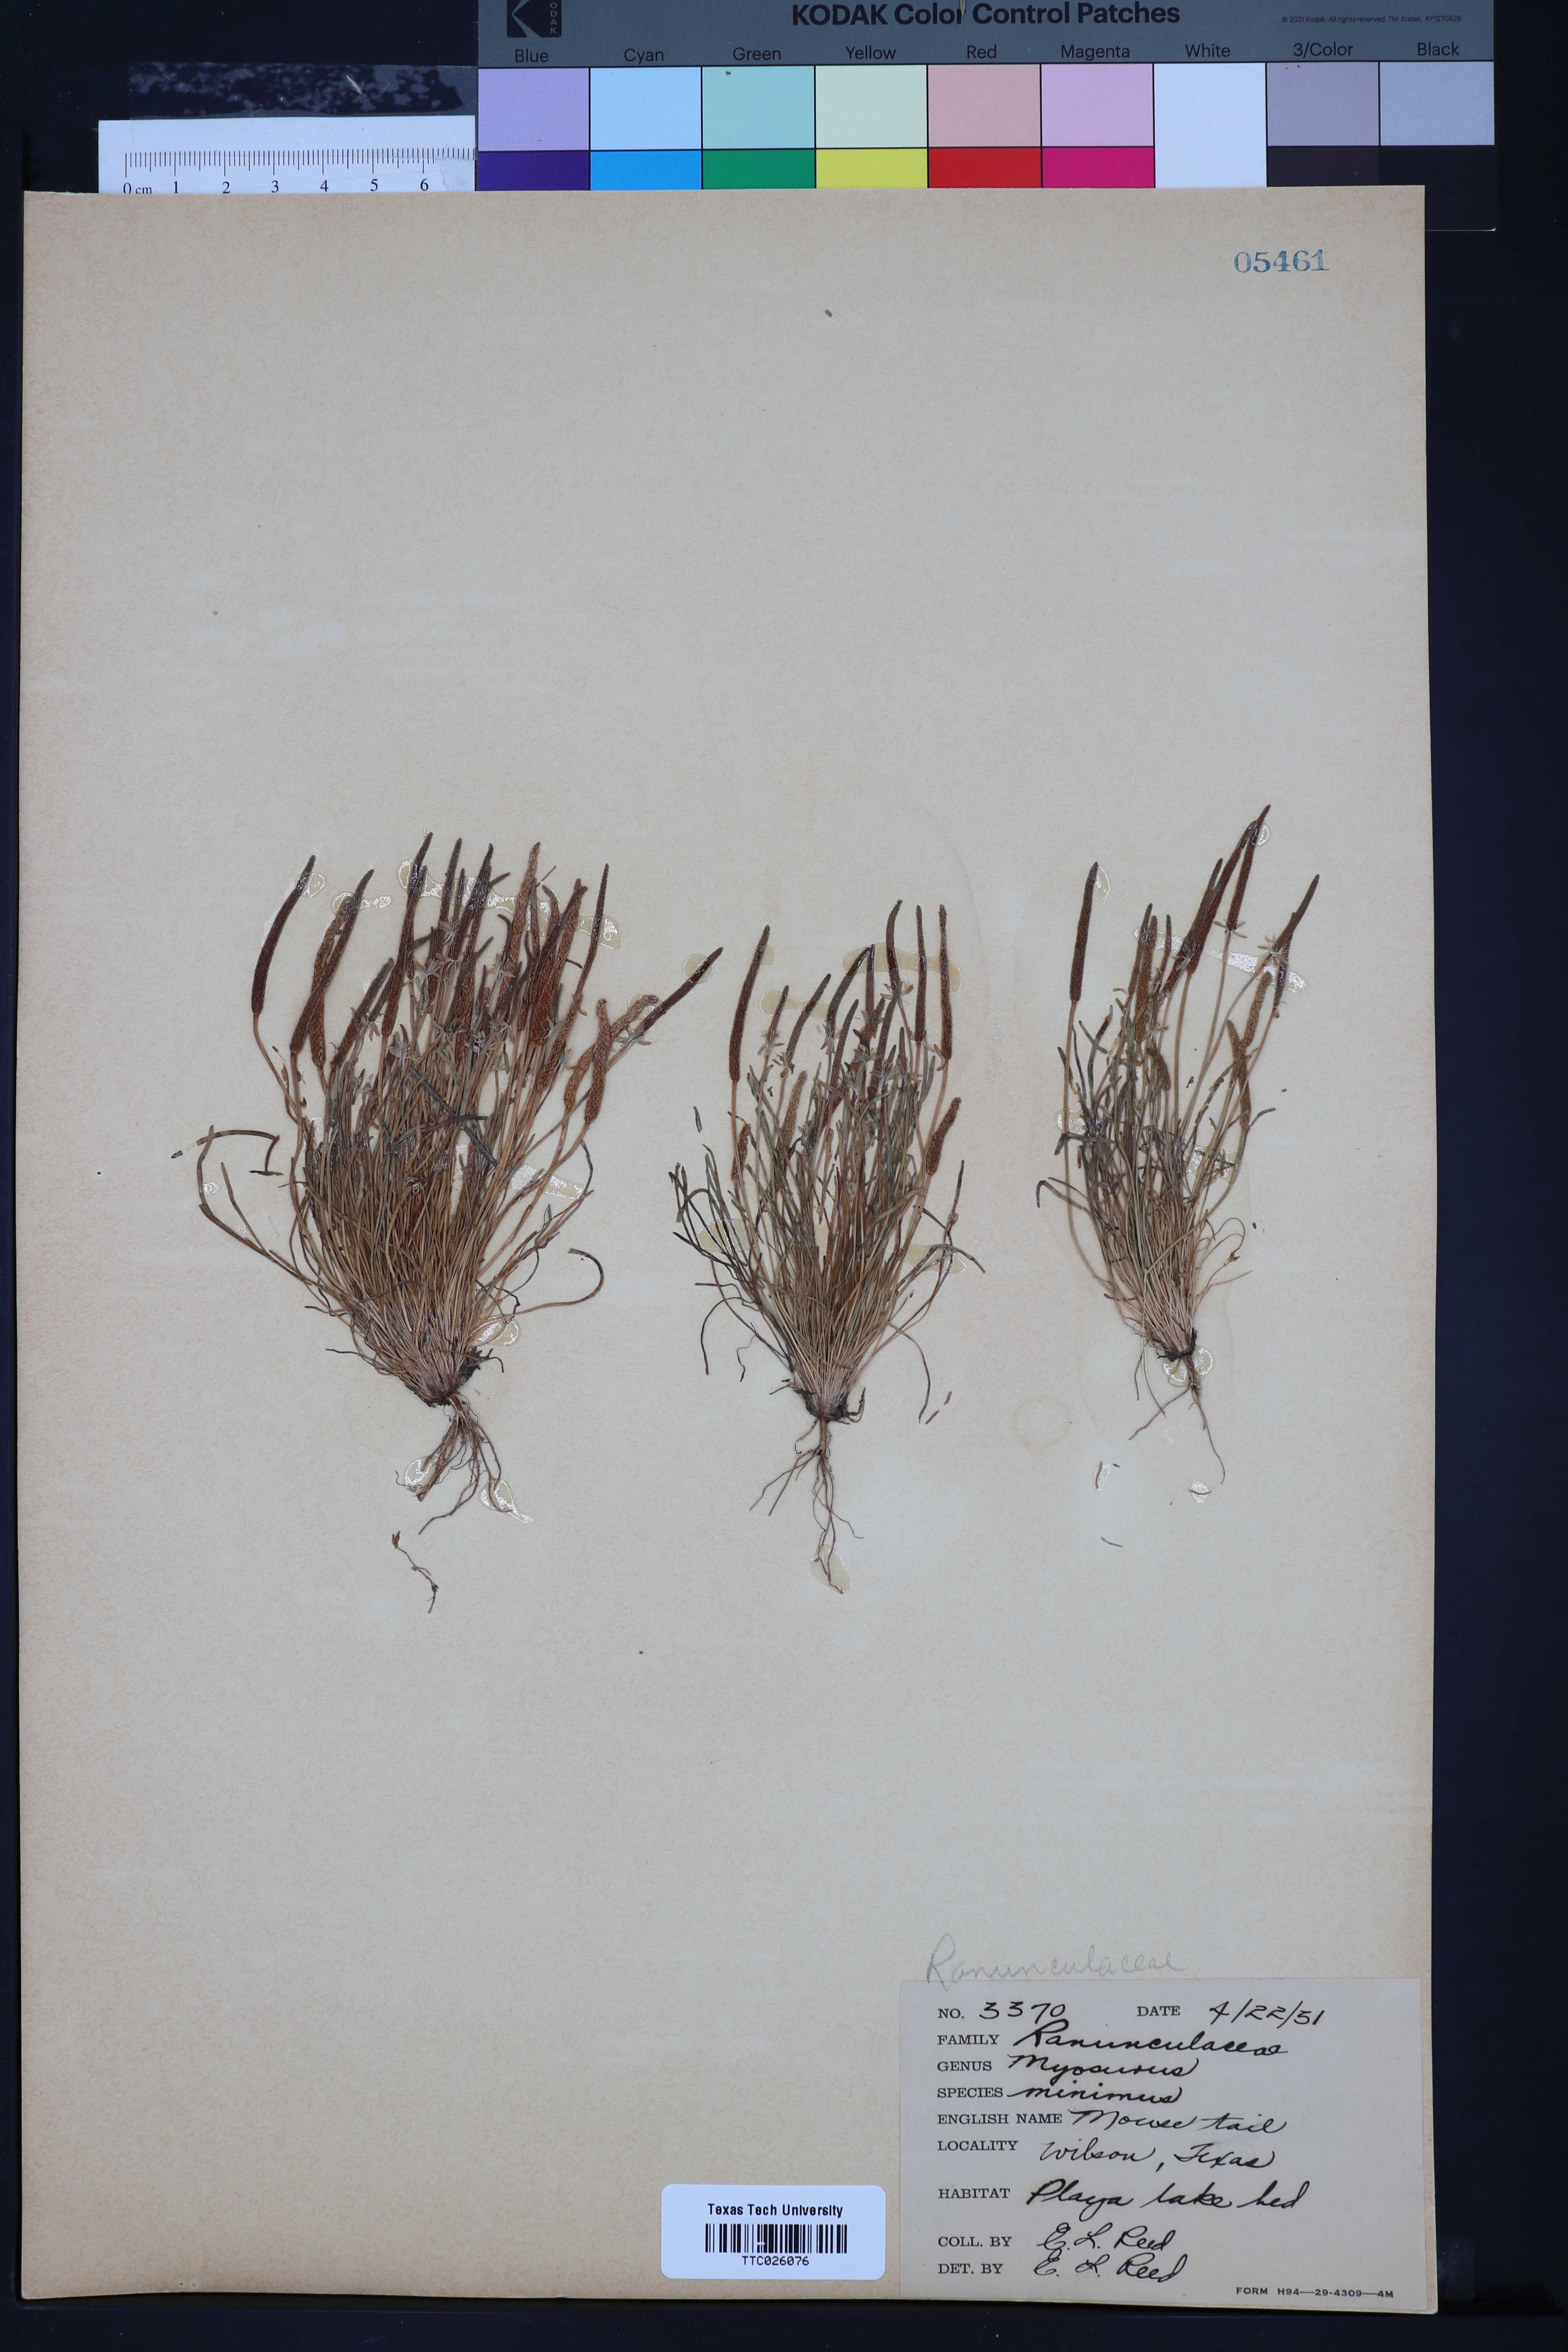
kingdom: Plantae
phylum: Tracheophyta
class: Magnoliopsida
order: Ranunculales
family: Ranunculaceae
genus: Myosurus
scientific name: Myosurus minimus
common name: Mousetail
